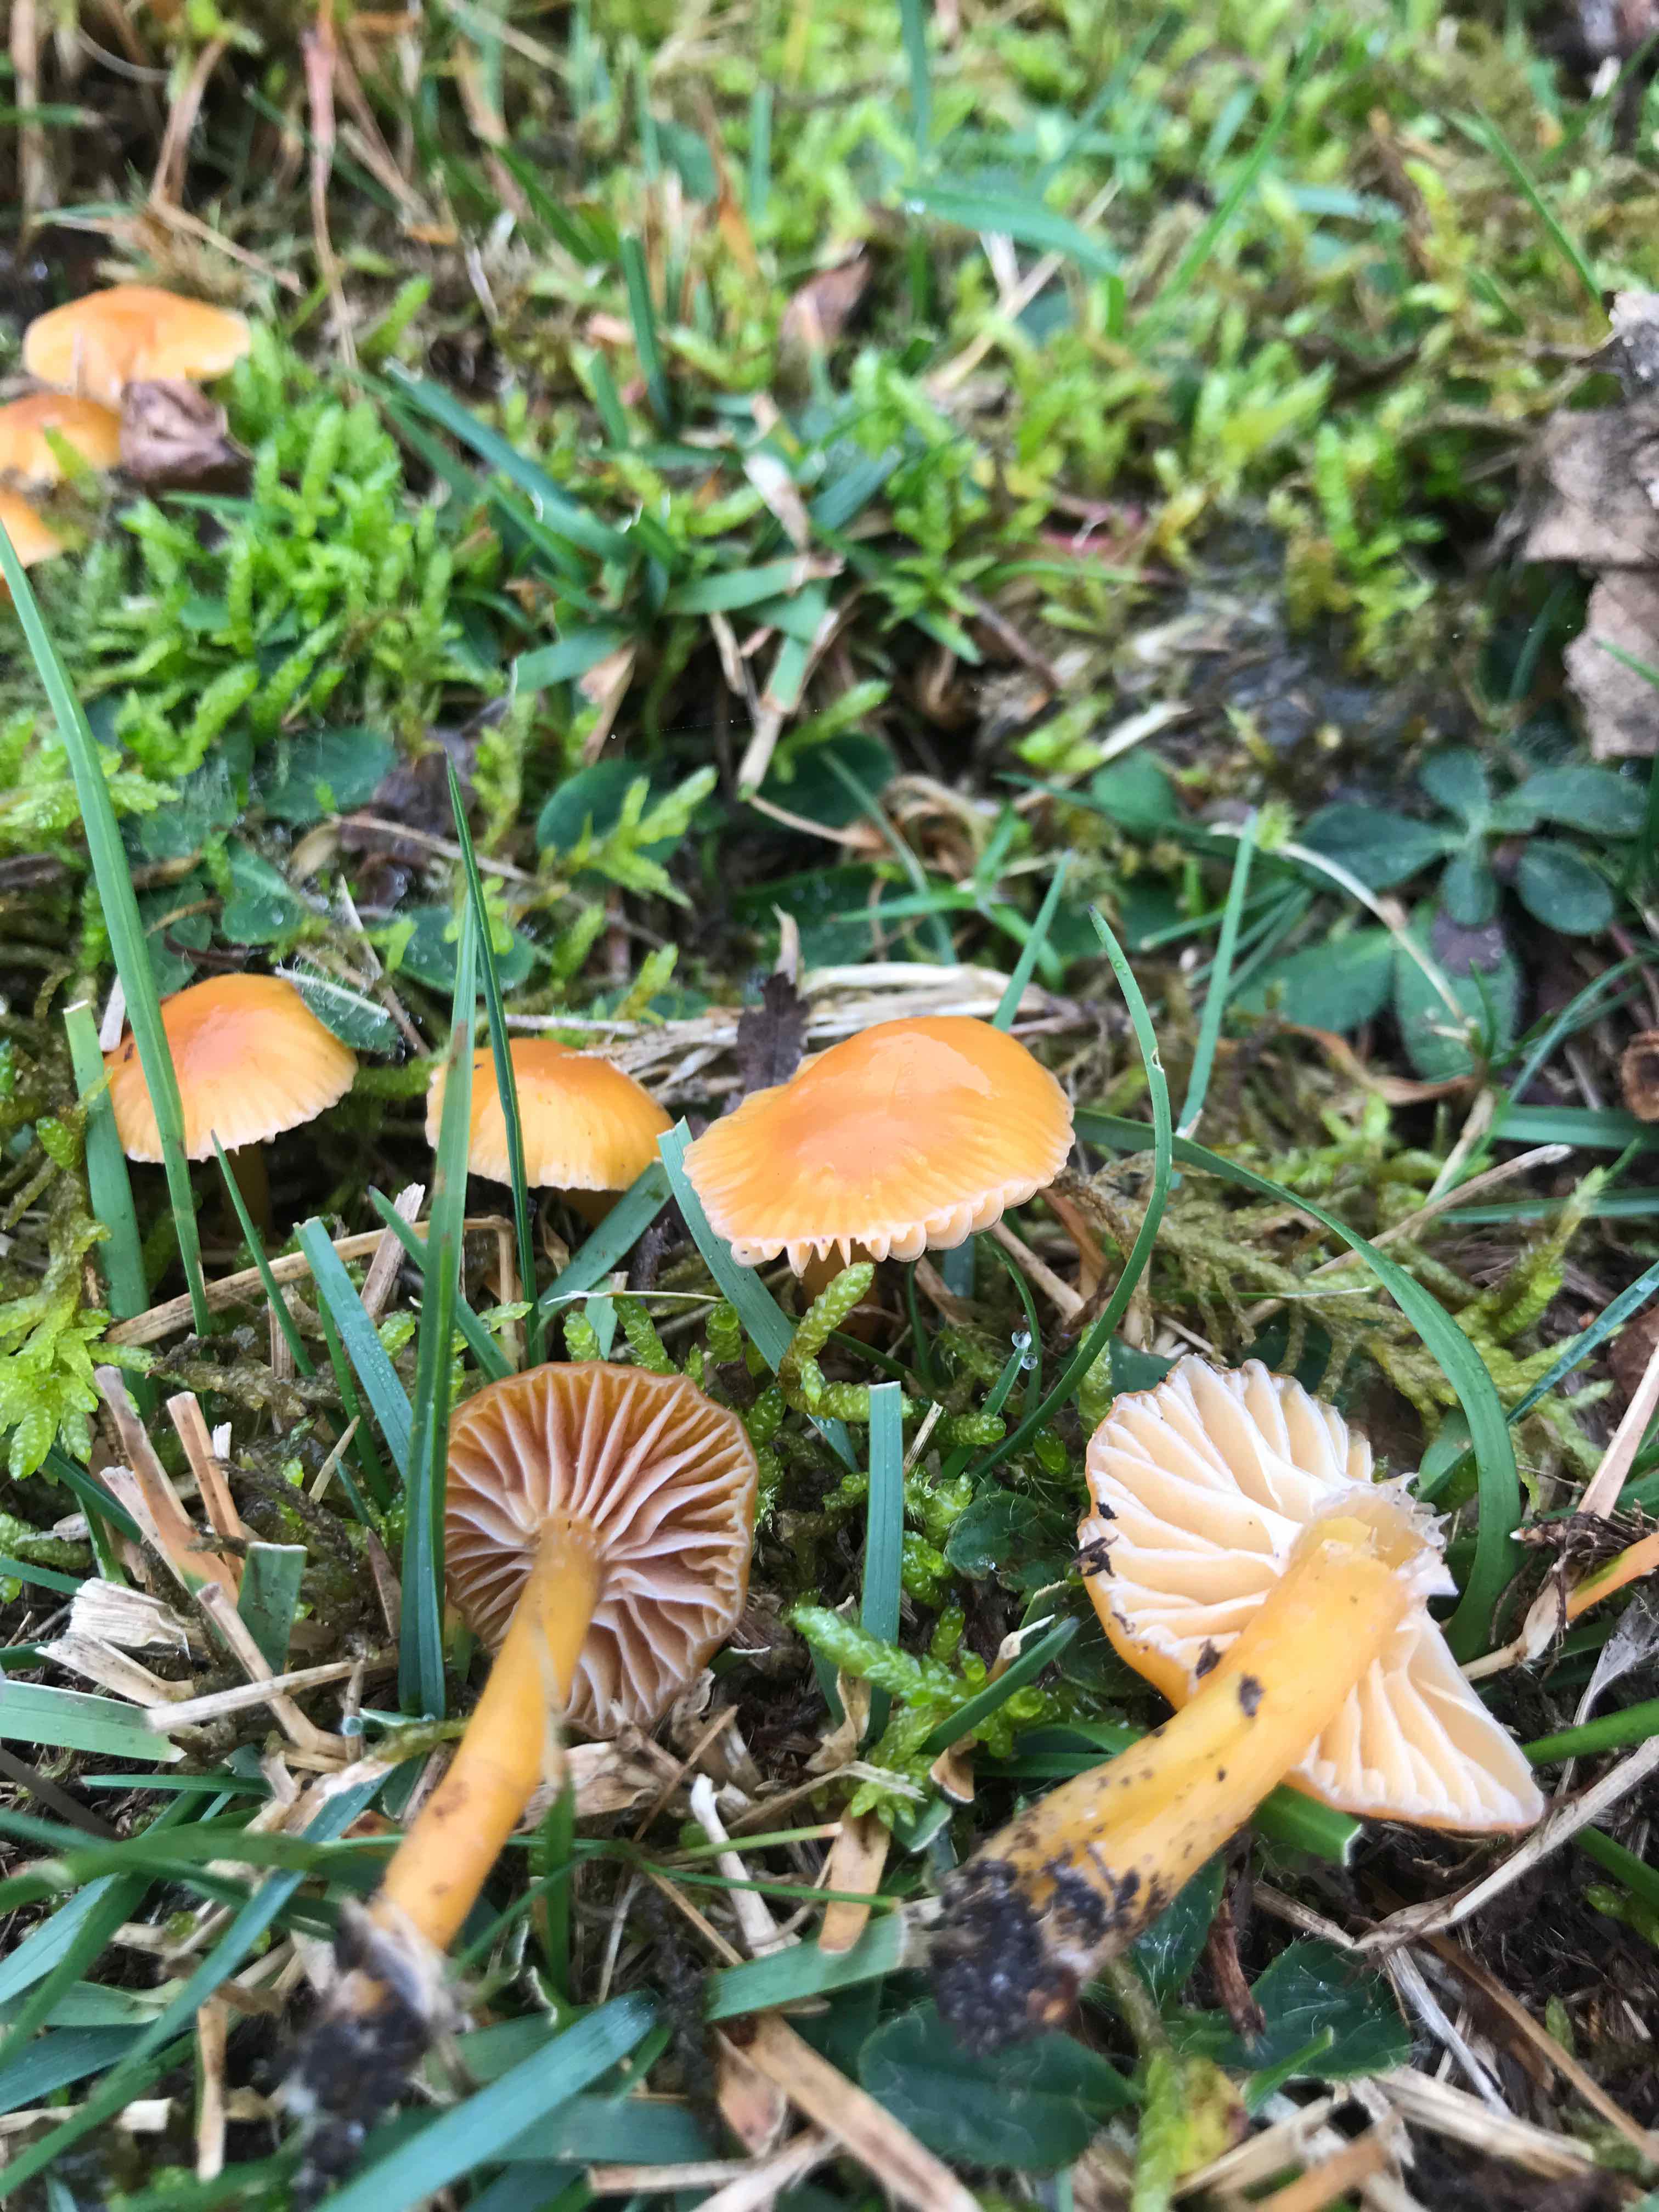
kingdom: Fungi
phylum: Basidiomycota
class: Agaricomycetes
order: Agaricales
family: Hygrophoraceae
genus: Gliophorus
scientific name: Gliophorus laetus
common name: brusk-vokshat
